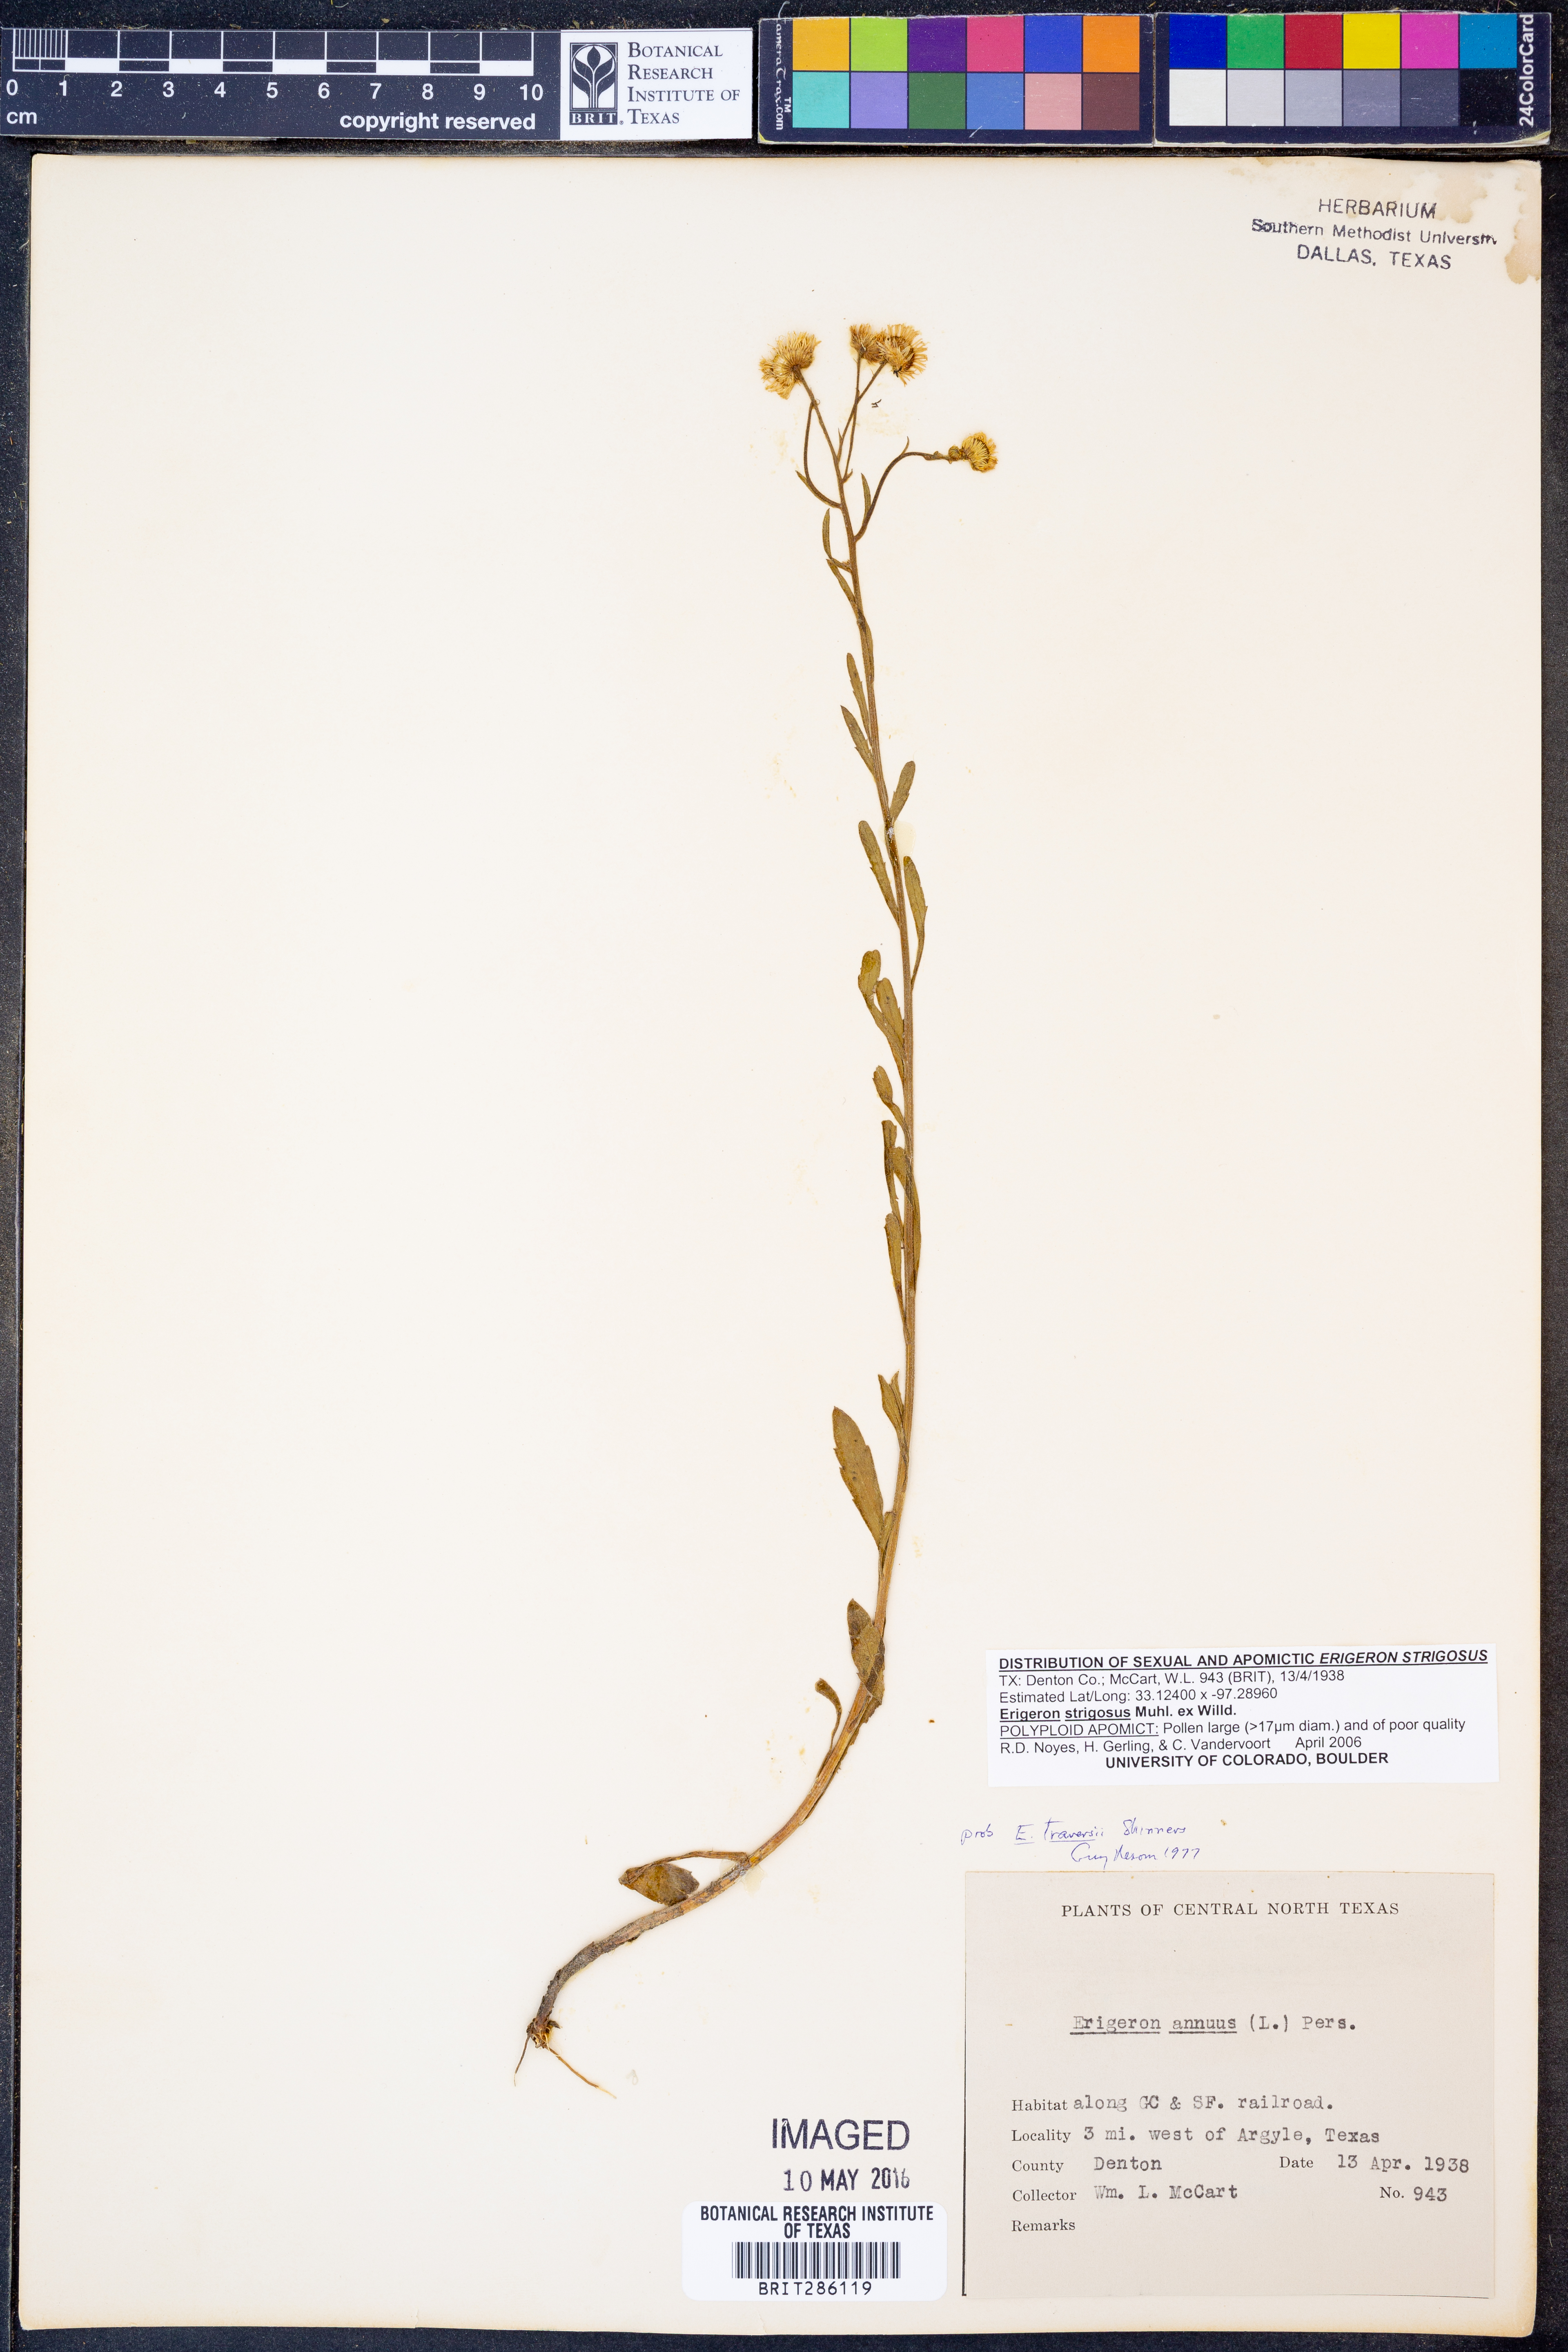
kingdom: Plantae
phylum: Tracheophyta
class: Magnoliopsida
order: Asterales
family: Asteraceae
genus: Erigeron
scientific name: Erigeron strigosus
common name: Common eastern fleabane
